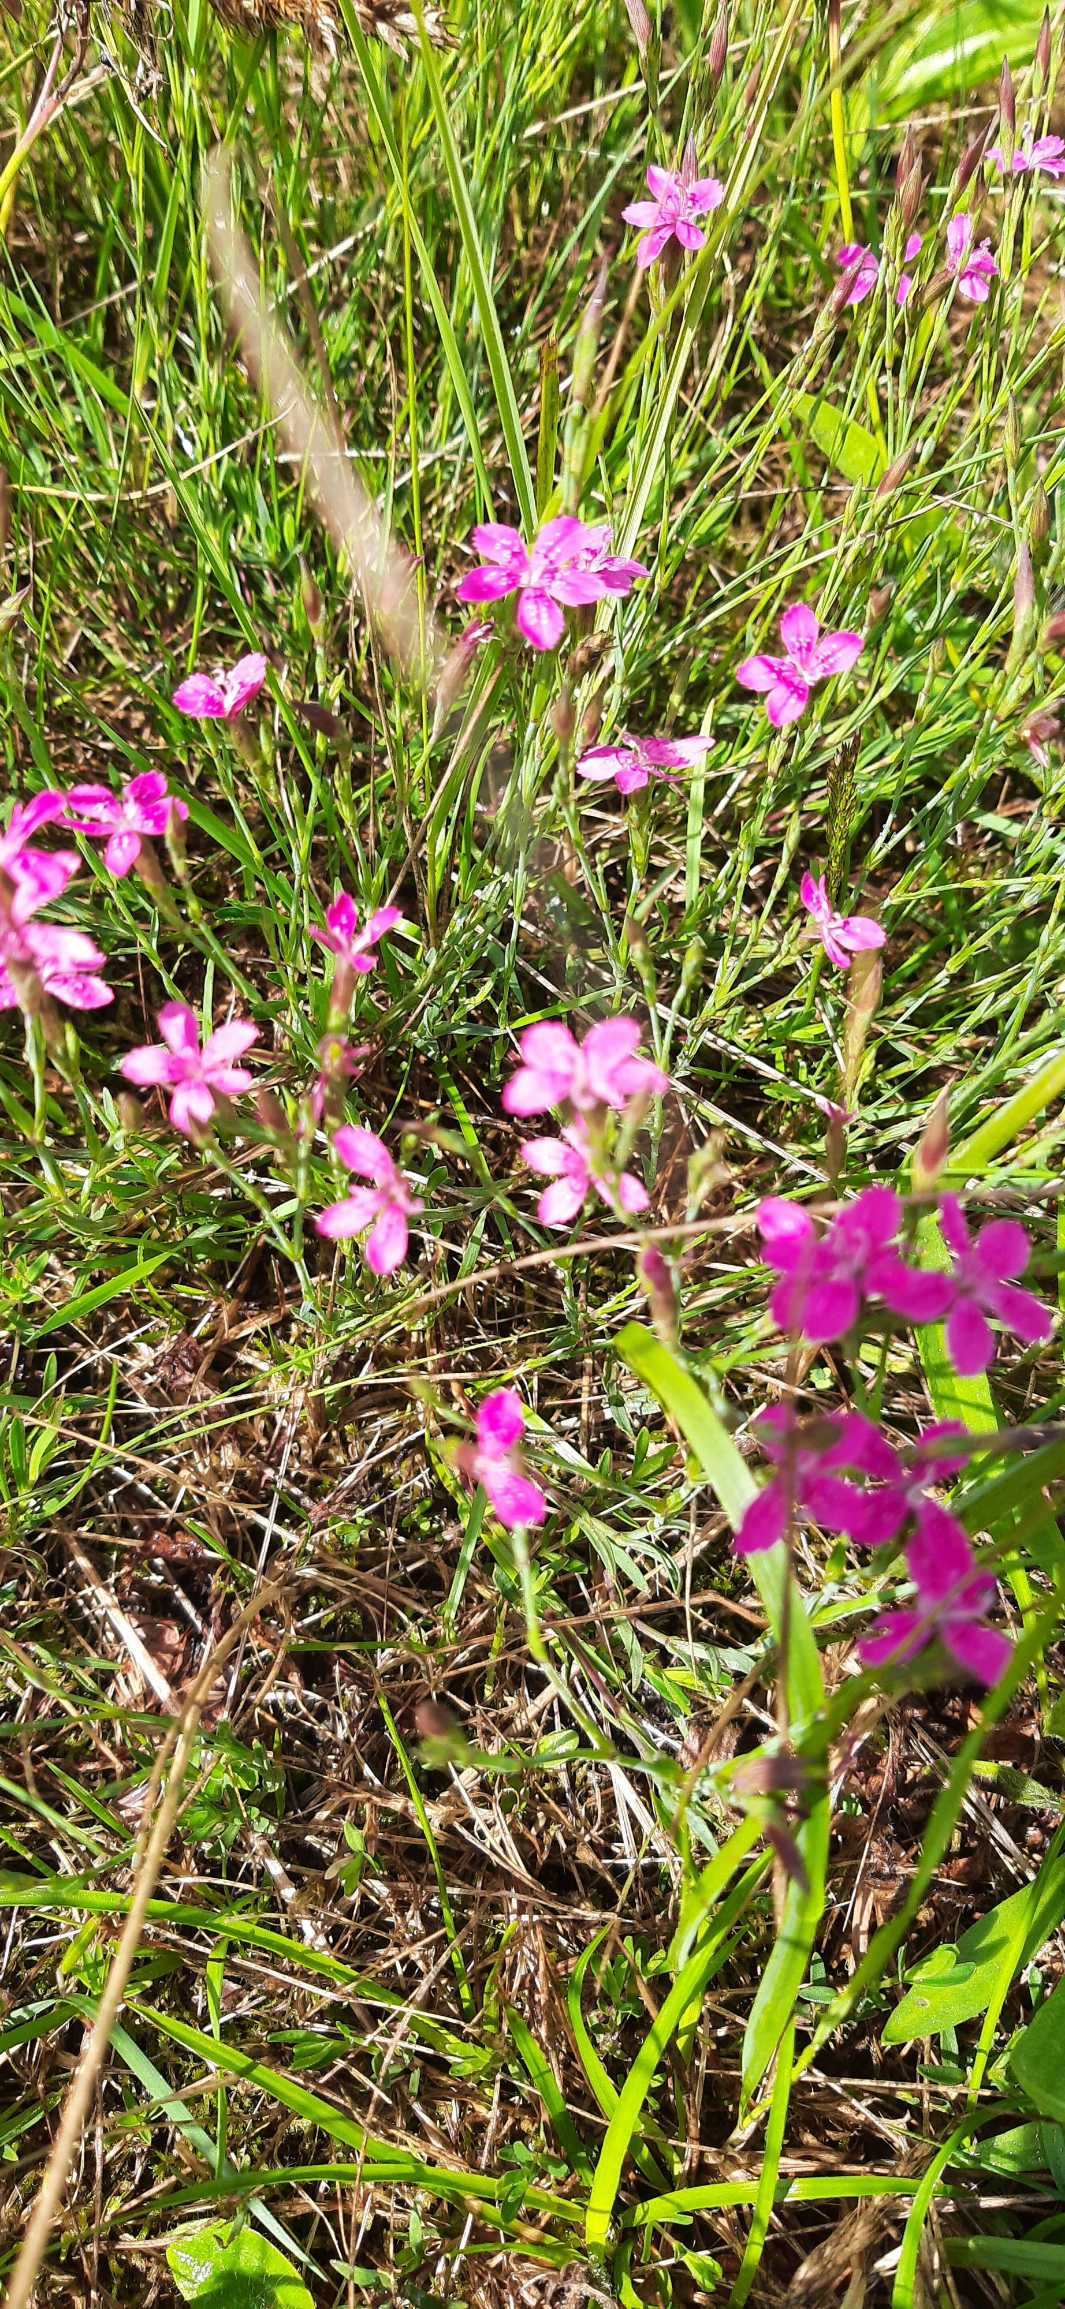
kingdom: Plantae
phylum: Tracheophyta
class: Magnoliopsida
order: Caryophyllales
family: Caryophyllaceae
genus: Dianthus
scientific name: Dianthus deltoides
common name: Bakke-nellike
